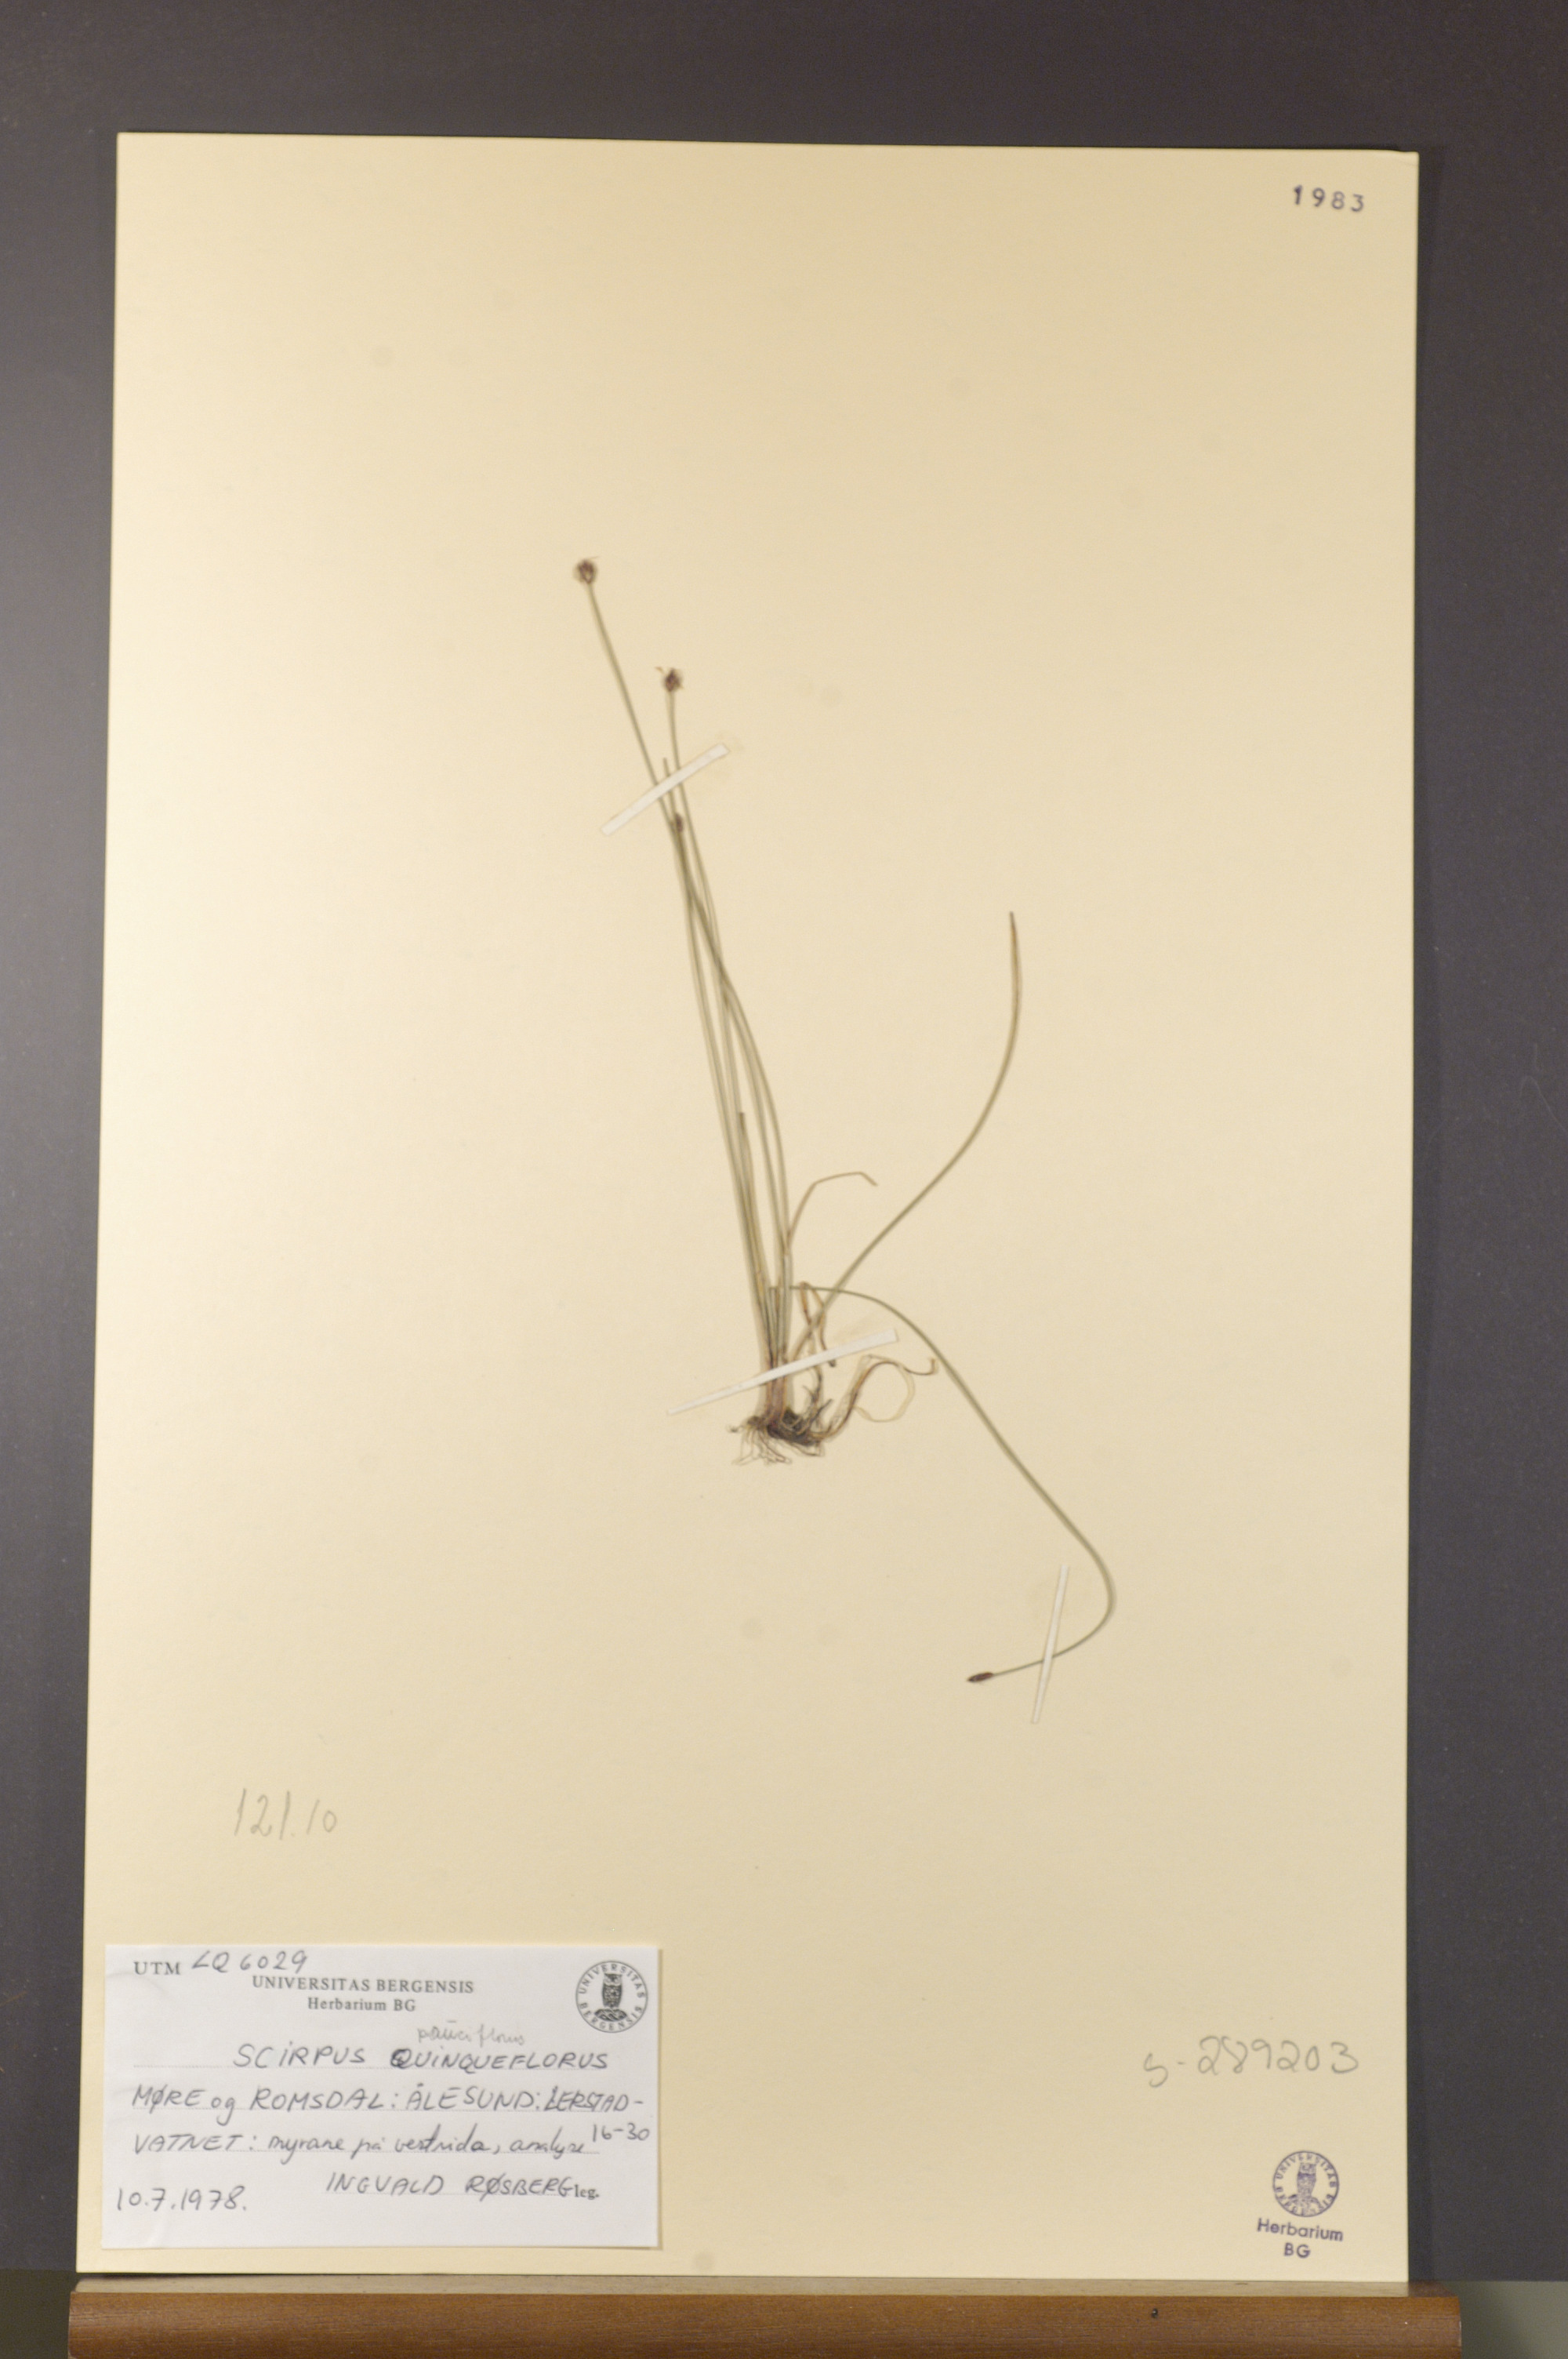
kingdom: Plantae
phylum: Tracheophyta
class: Liliopsida
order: Poales
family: Cyperaceae
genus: Eleocharis
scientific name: Eleocharis quinqueflora
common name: Few-flowered spike-rush
